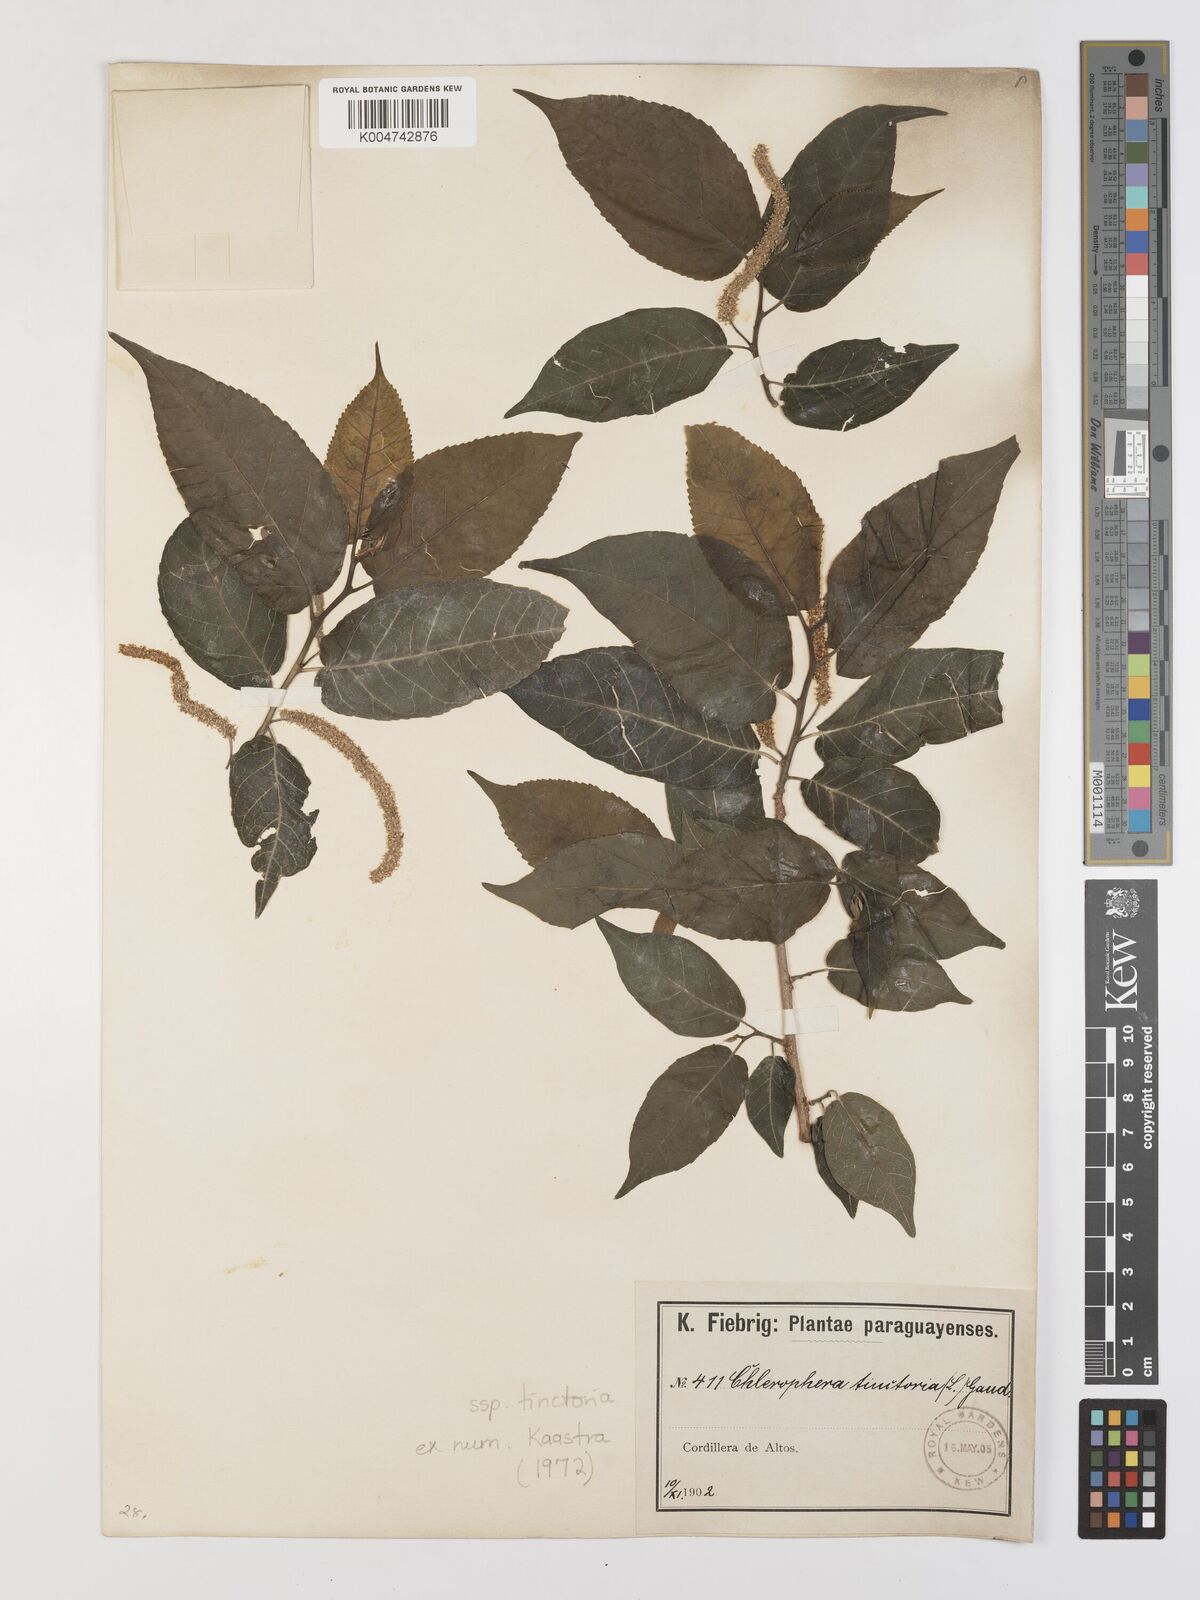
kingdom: Plantae
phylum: Tracheophyta
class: Magnoliopsida
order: Rosales
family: Moraceae
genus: Maclura
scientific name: Maclura tinctoria
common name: Old fustic
